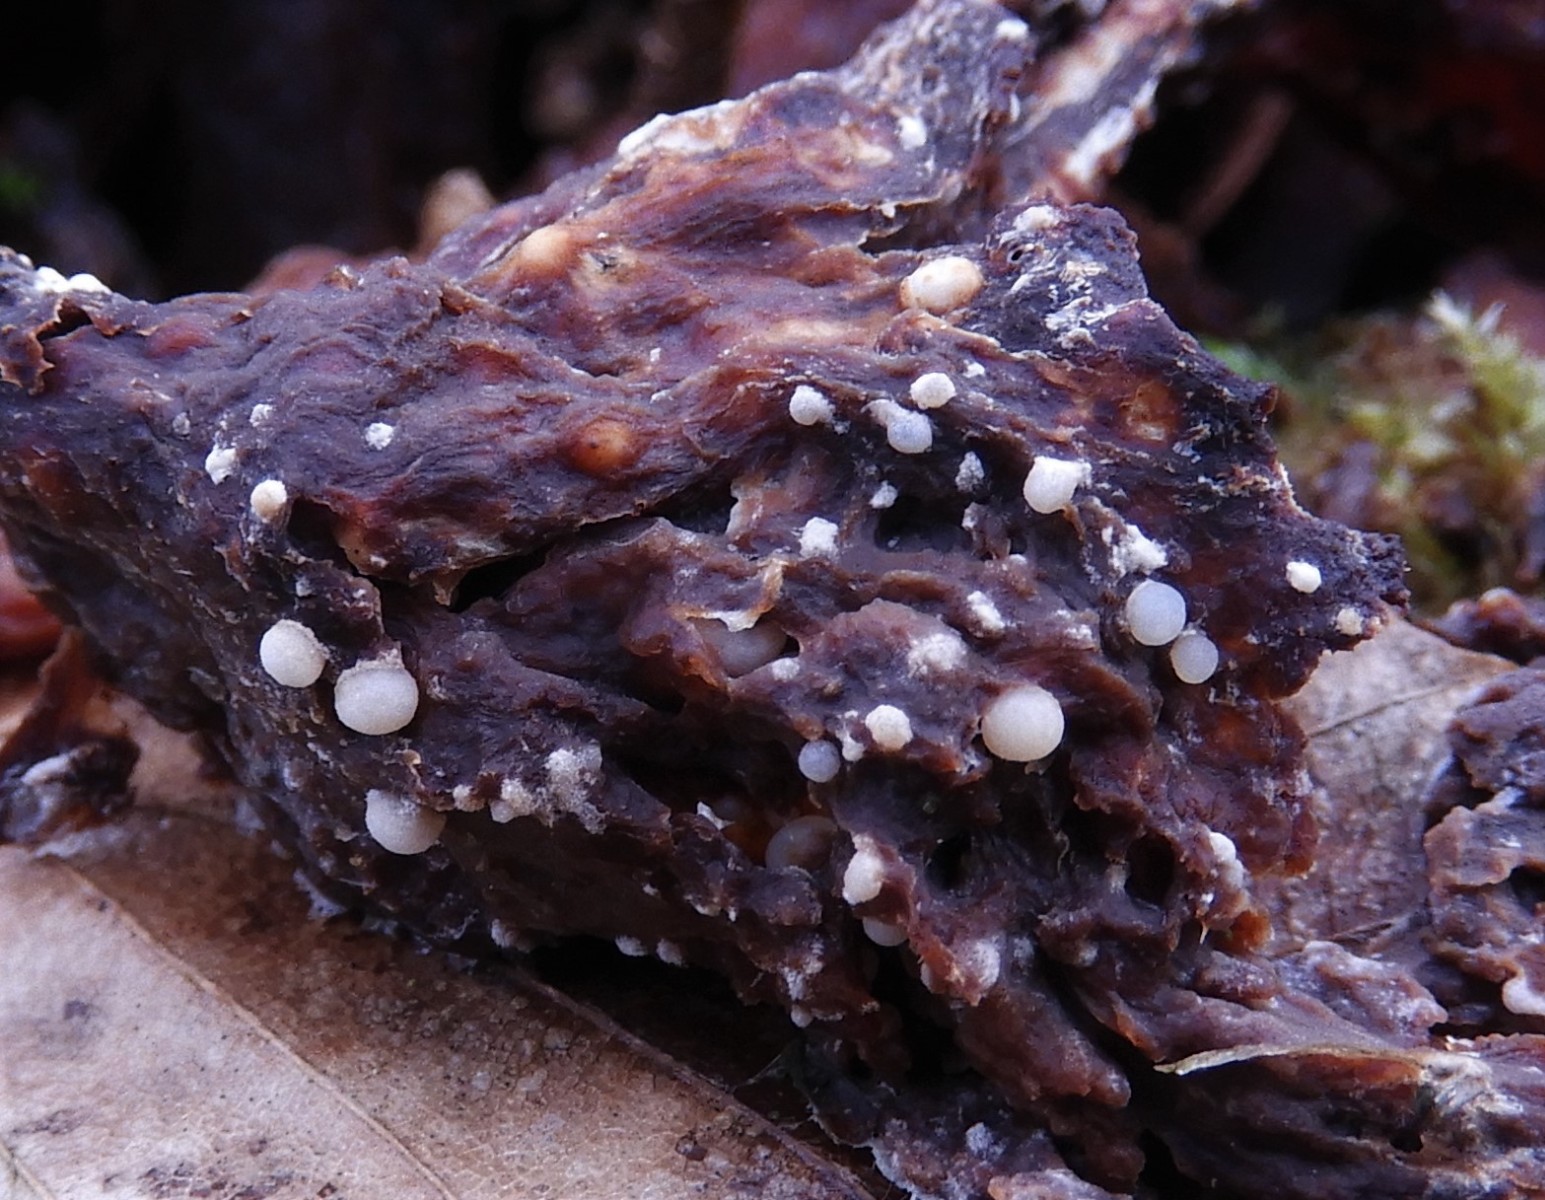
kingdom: Fungi
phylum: Basidiomycota
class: Agaricomycetes
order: Agaricales
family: Tricholomataceae
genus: Collybia
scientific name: Collybia
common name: lighat
